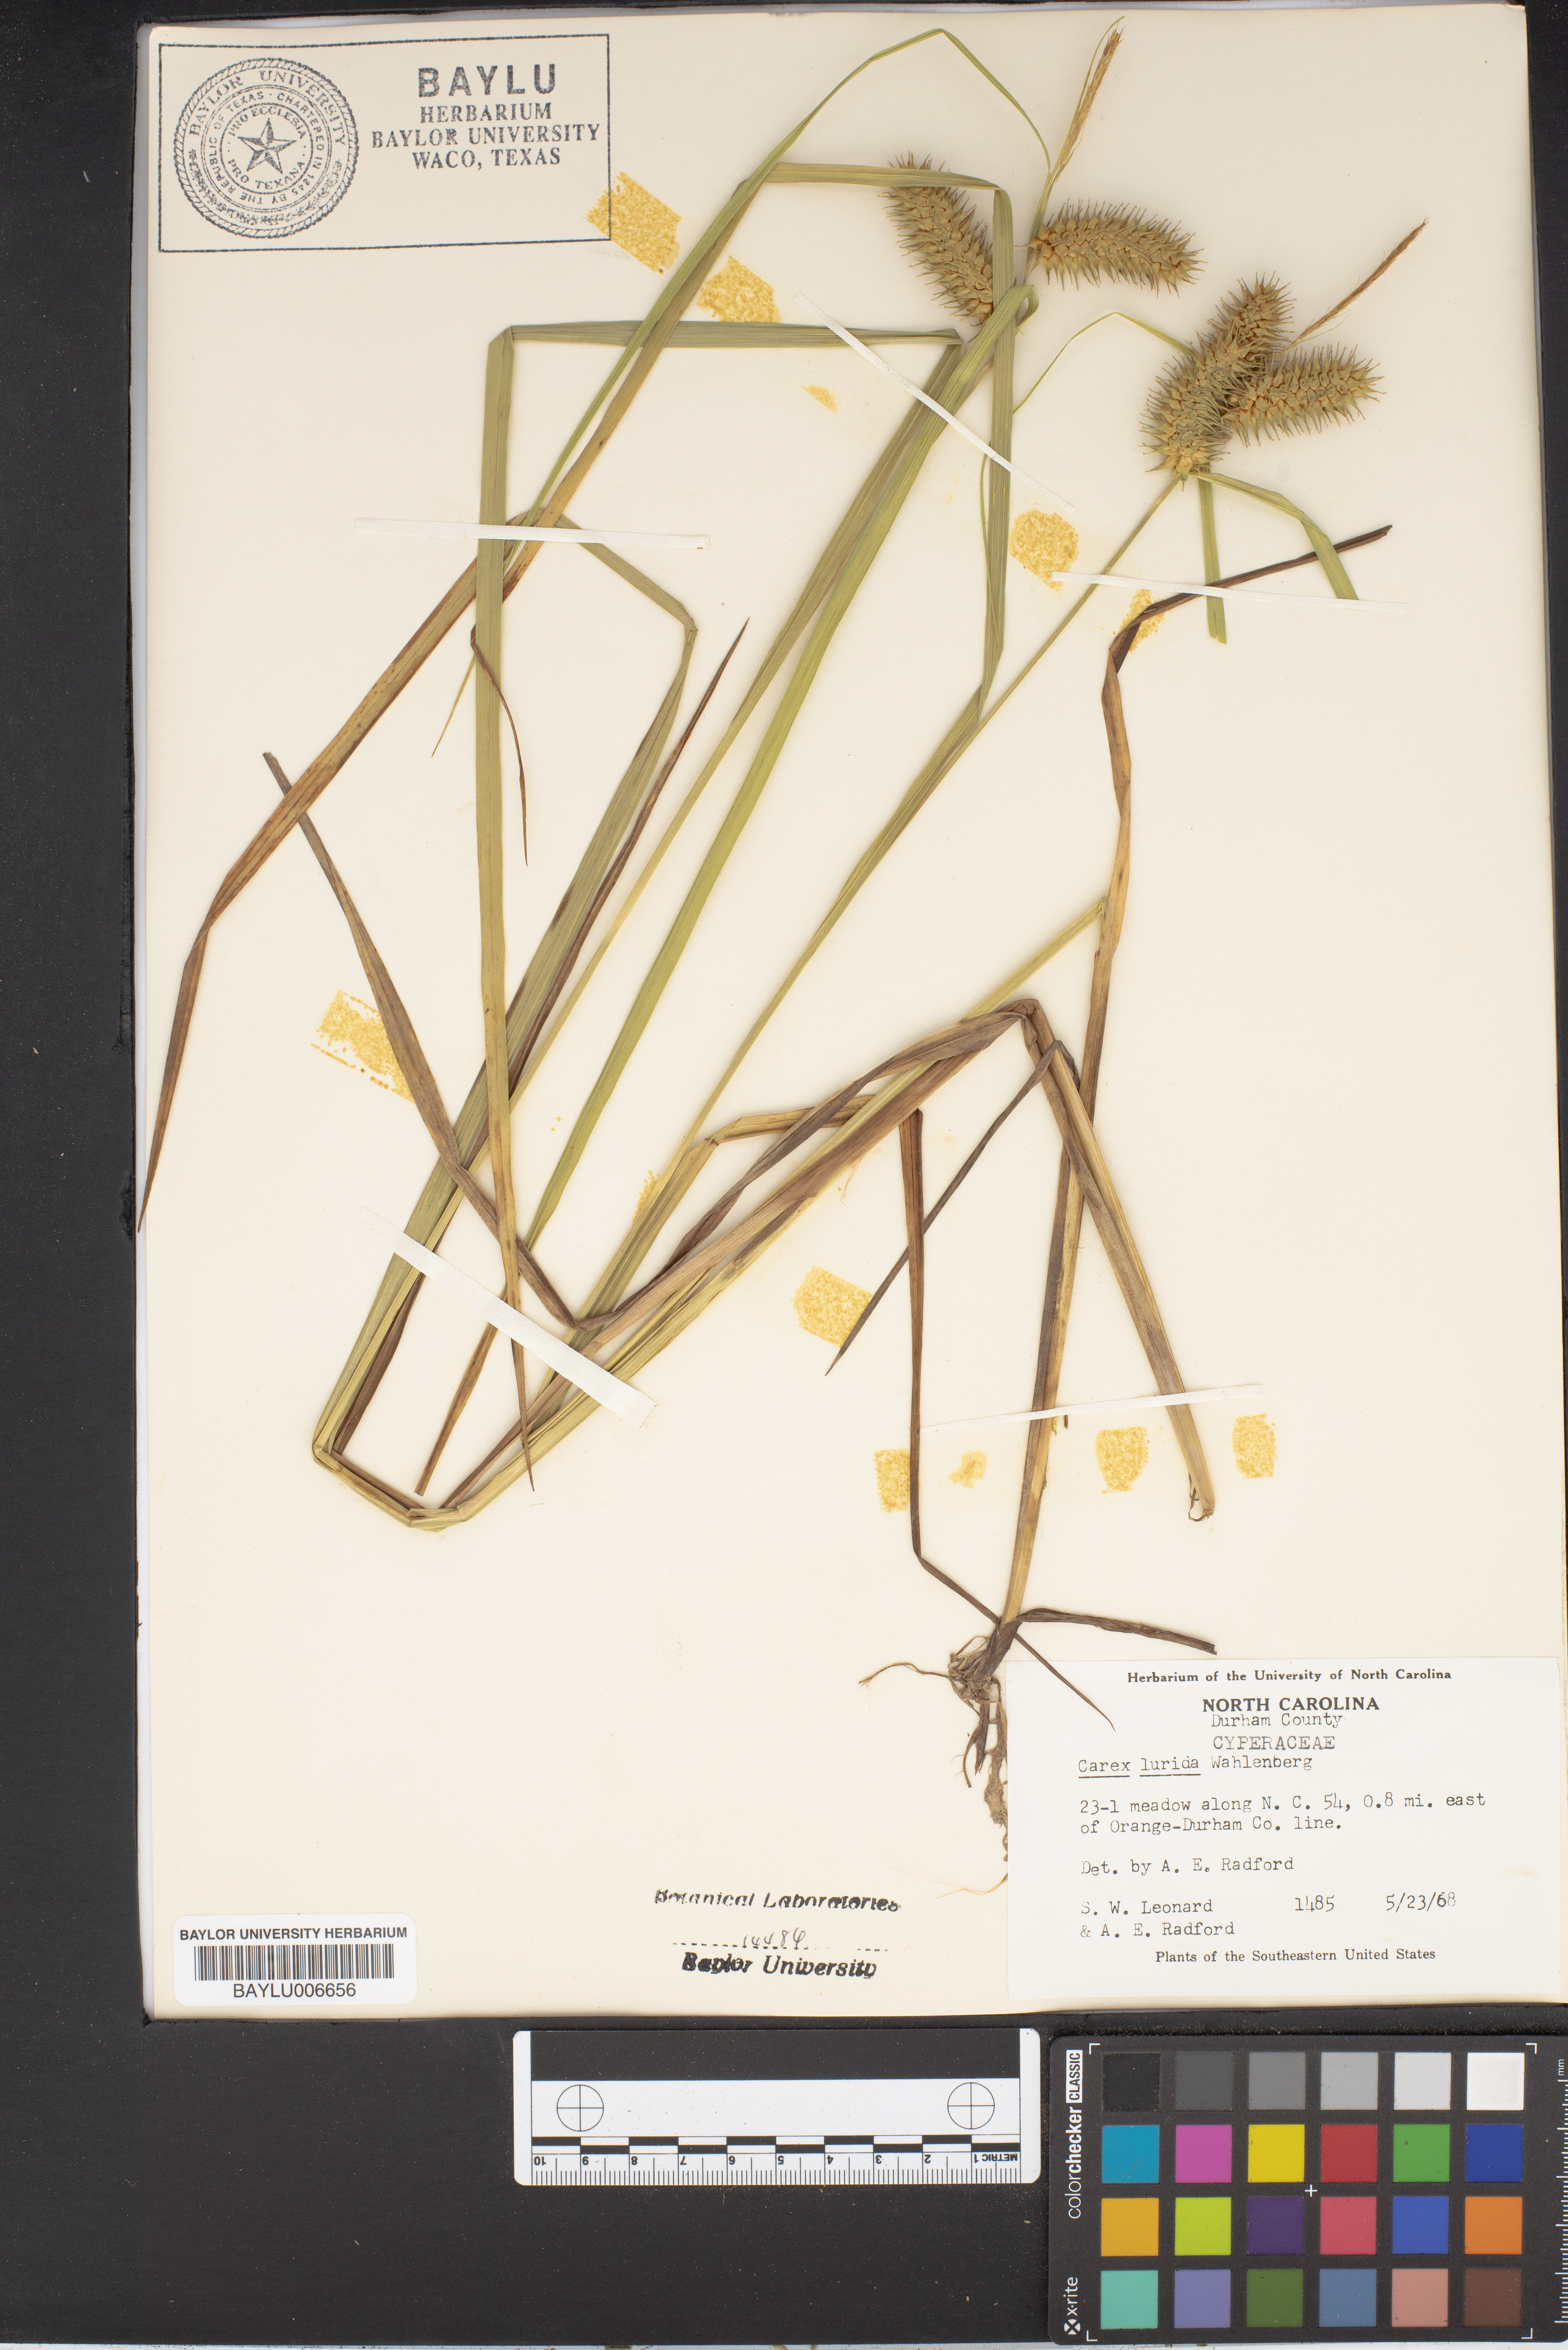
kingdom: Plantae
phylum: Tracheophyta
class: Liliopsida
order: Poales
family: Cyperaceae
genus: Carex
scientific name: Carex lurida
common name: Sallow sedge
